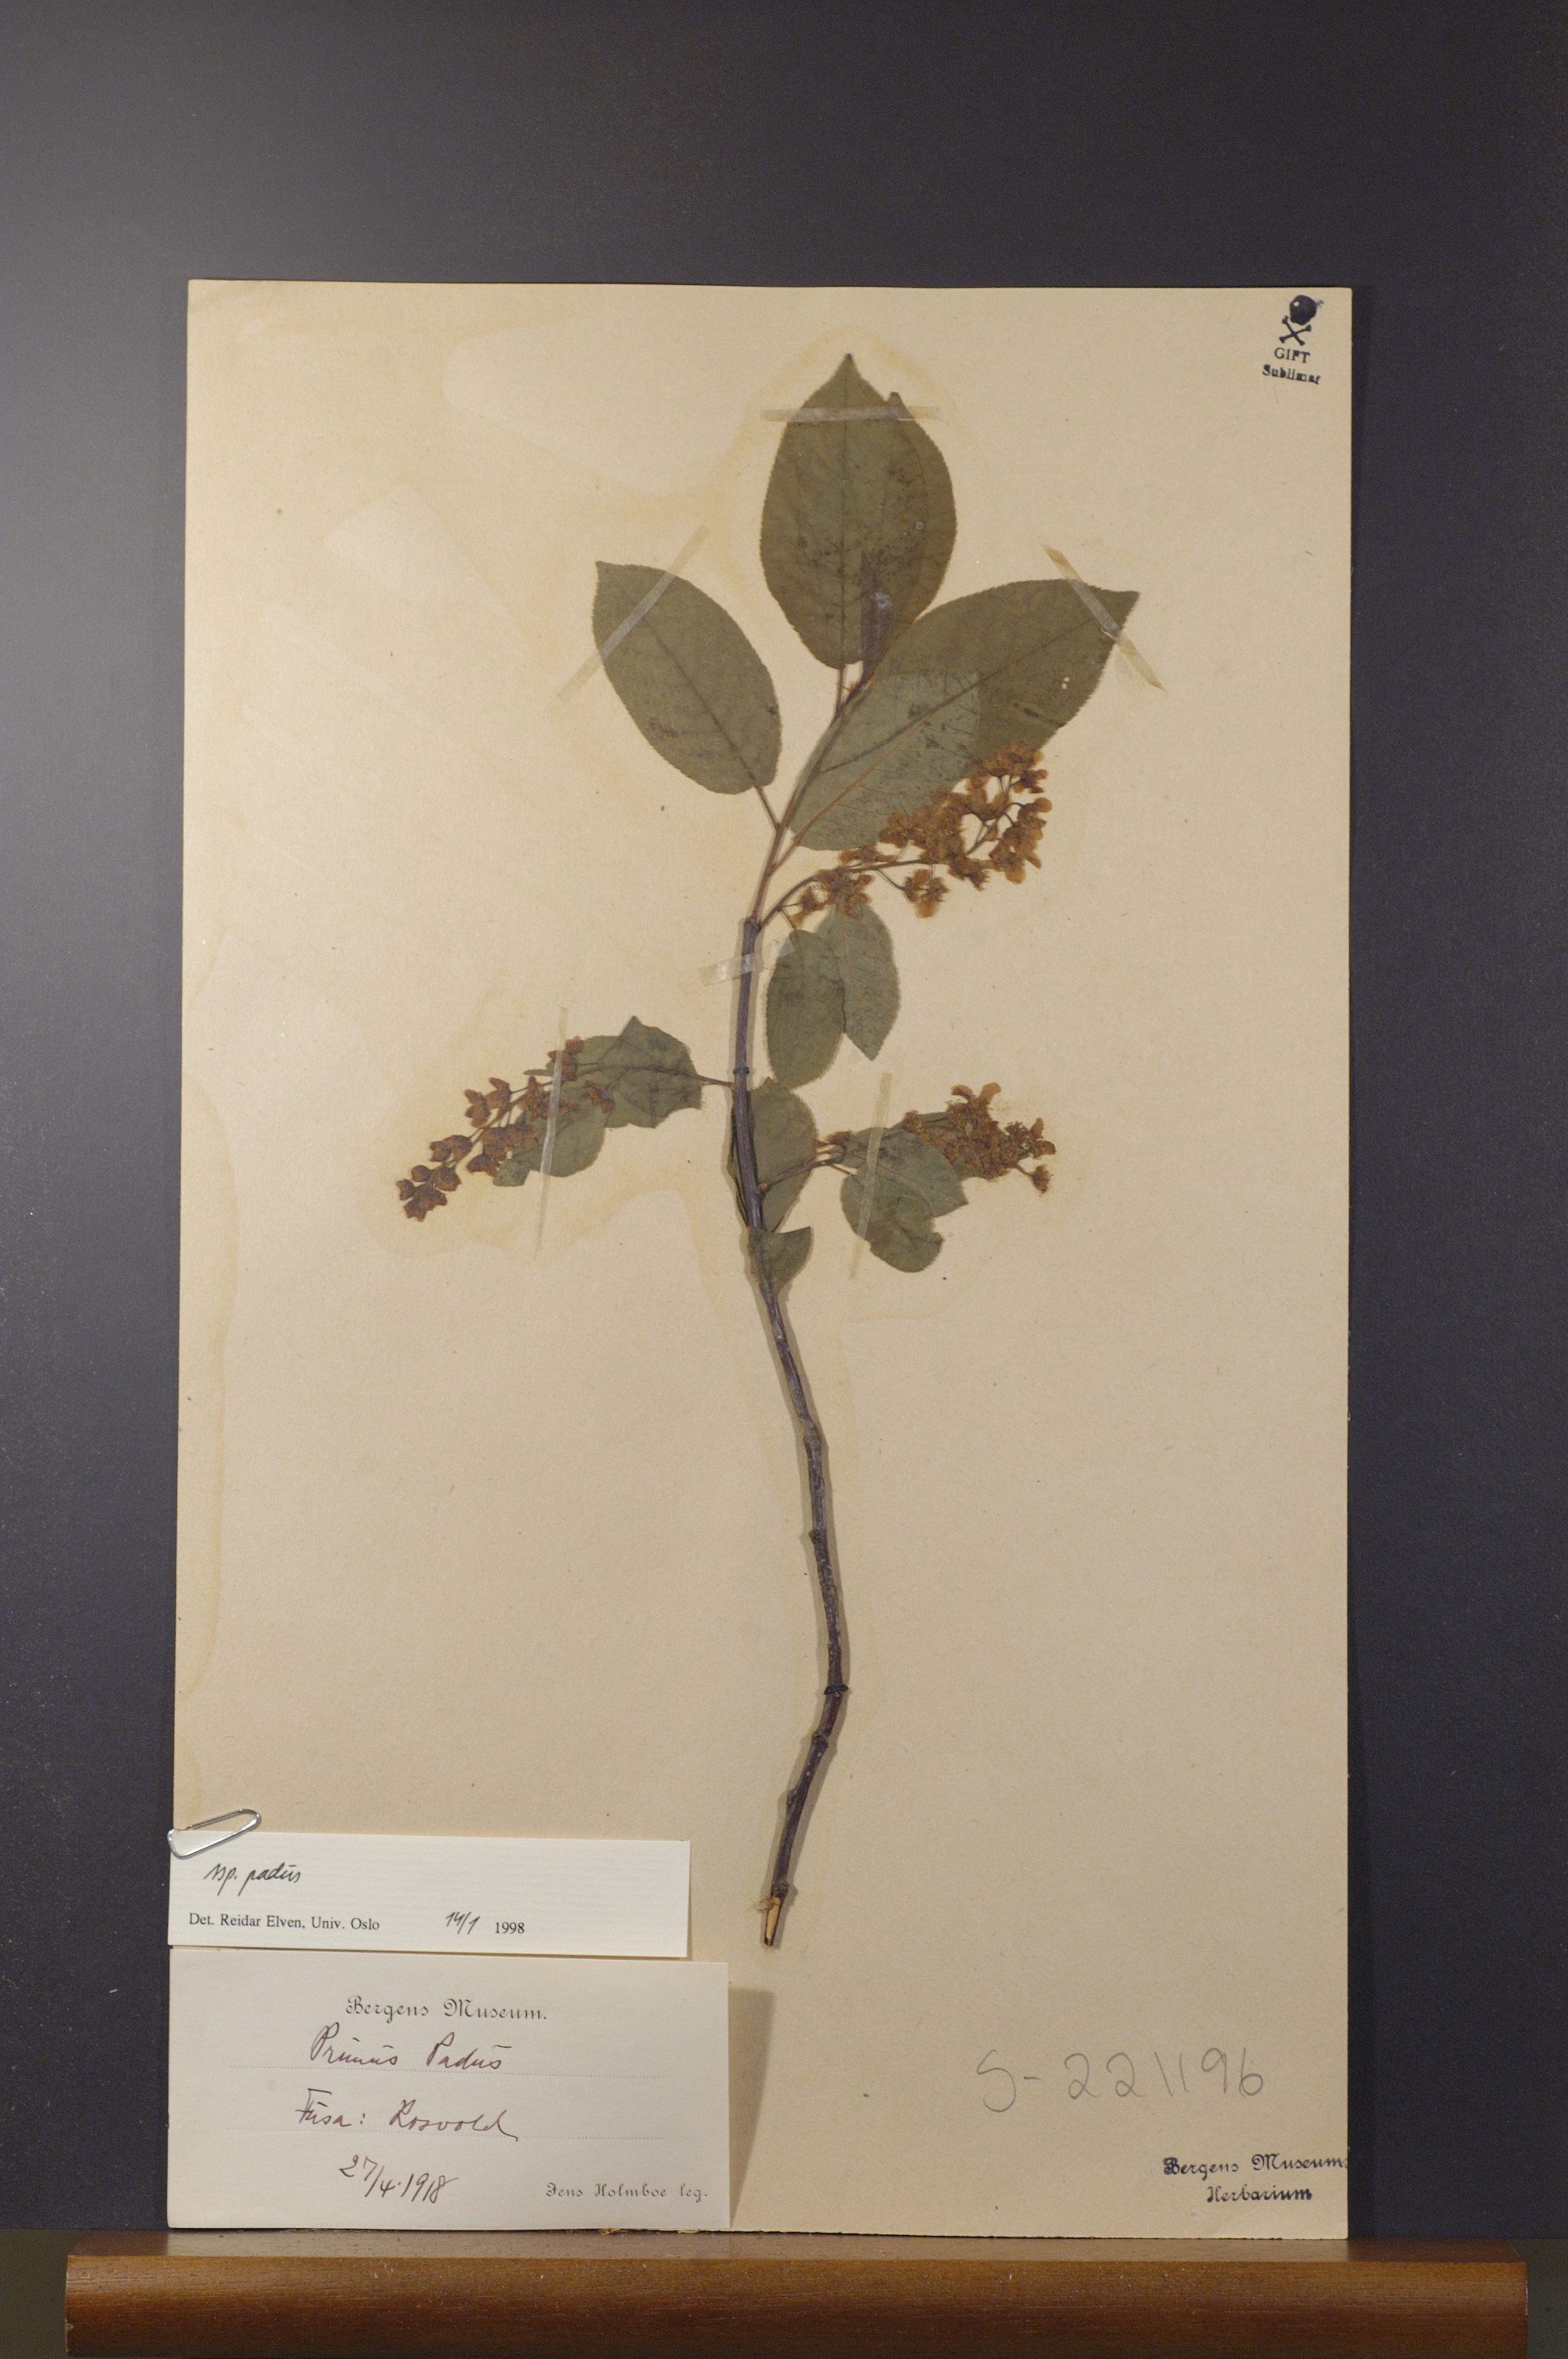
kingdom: Plantae
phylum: Tracheophyta
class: Magnoliopsida
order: Rosales
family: Rosaceae
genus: Prunus
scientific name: Prunus padus
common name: Bird cherry
